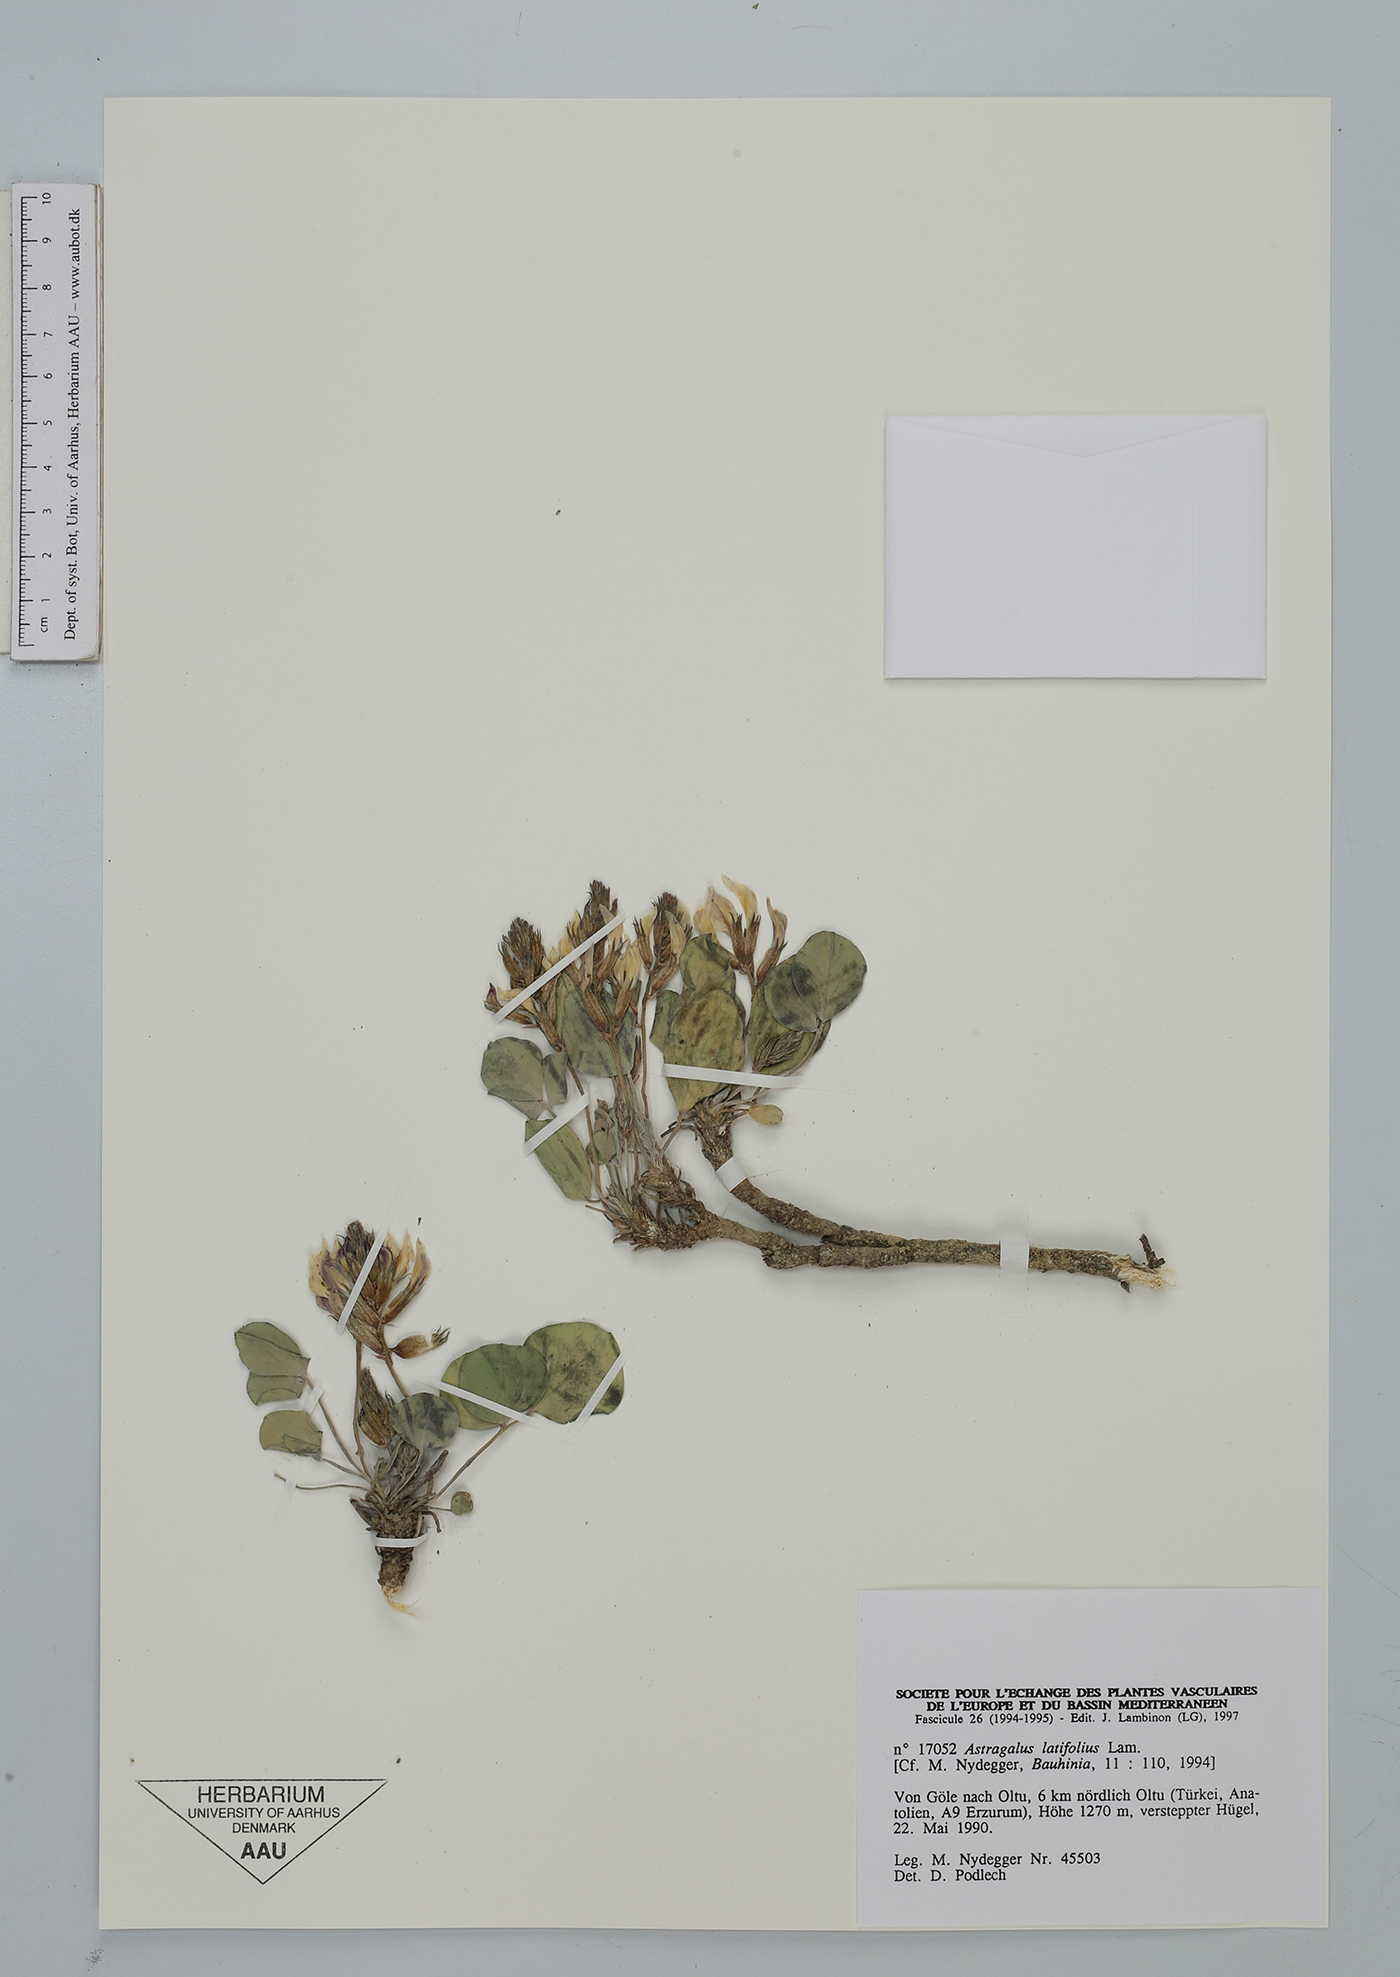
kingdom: Plantae
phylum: Tracheophyta
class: Magnoliopsida
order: Fabales
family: Fabaceae
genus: Astragalus
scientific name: Astragalus latifolius
